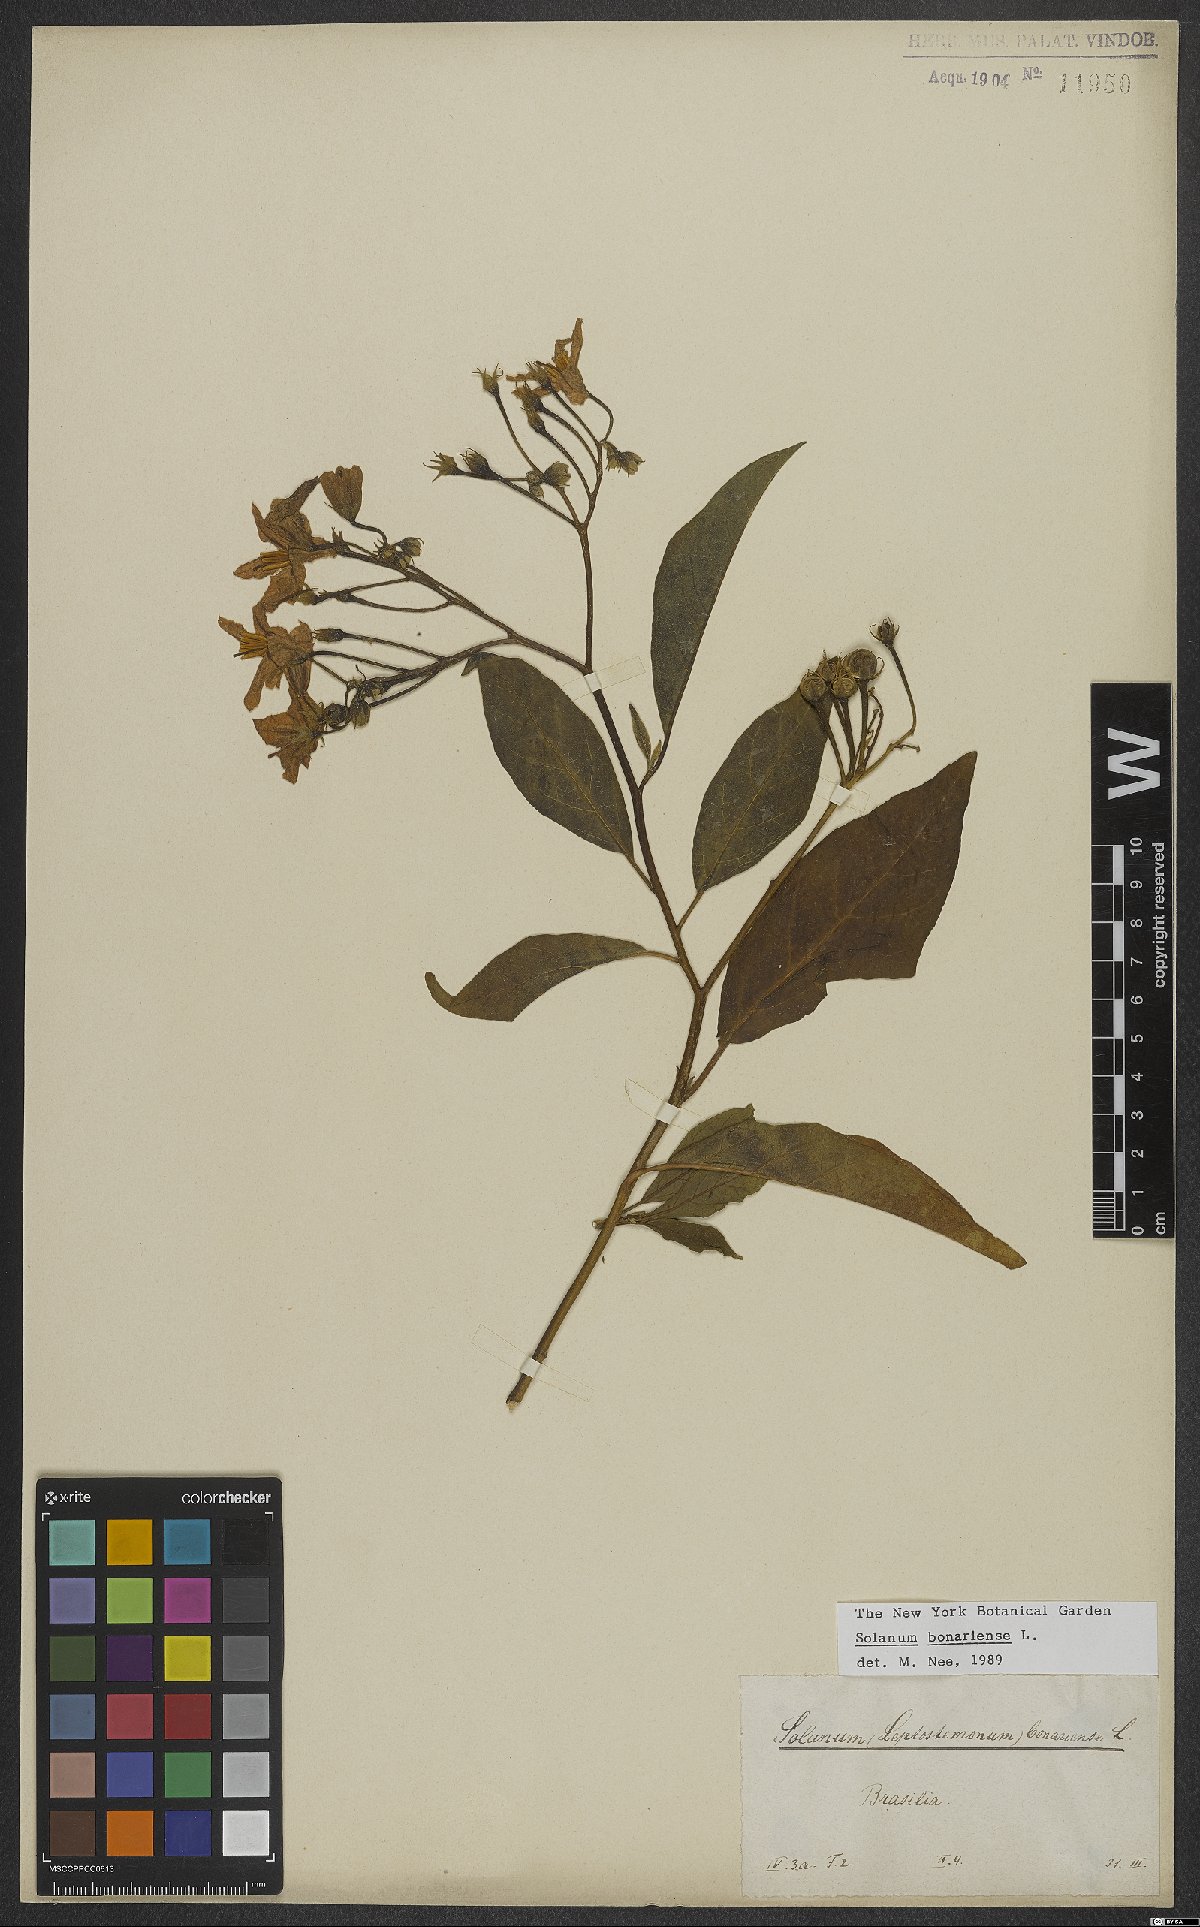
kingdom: Plantae
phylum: Tracheophyta
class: Magnoliopsida
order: Solanales
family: Solanaceae
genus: Solanum
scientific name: Solanum bonariense
